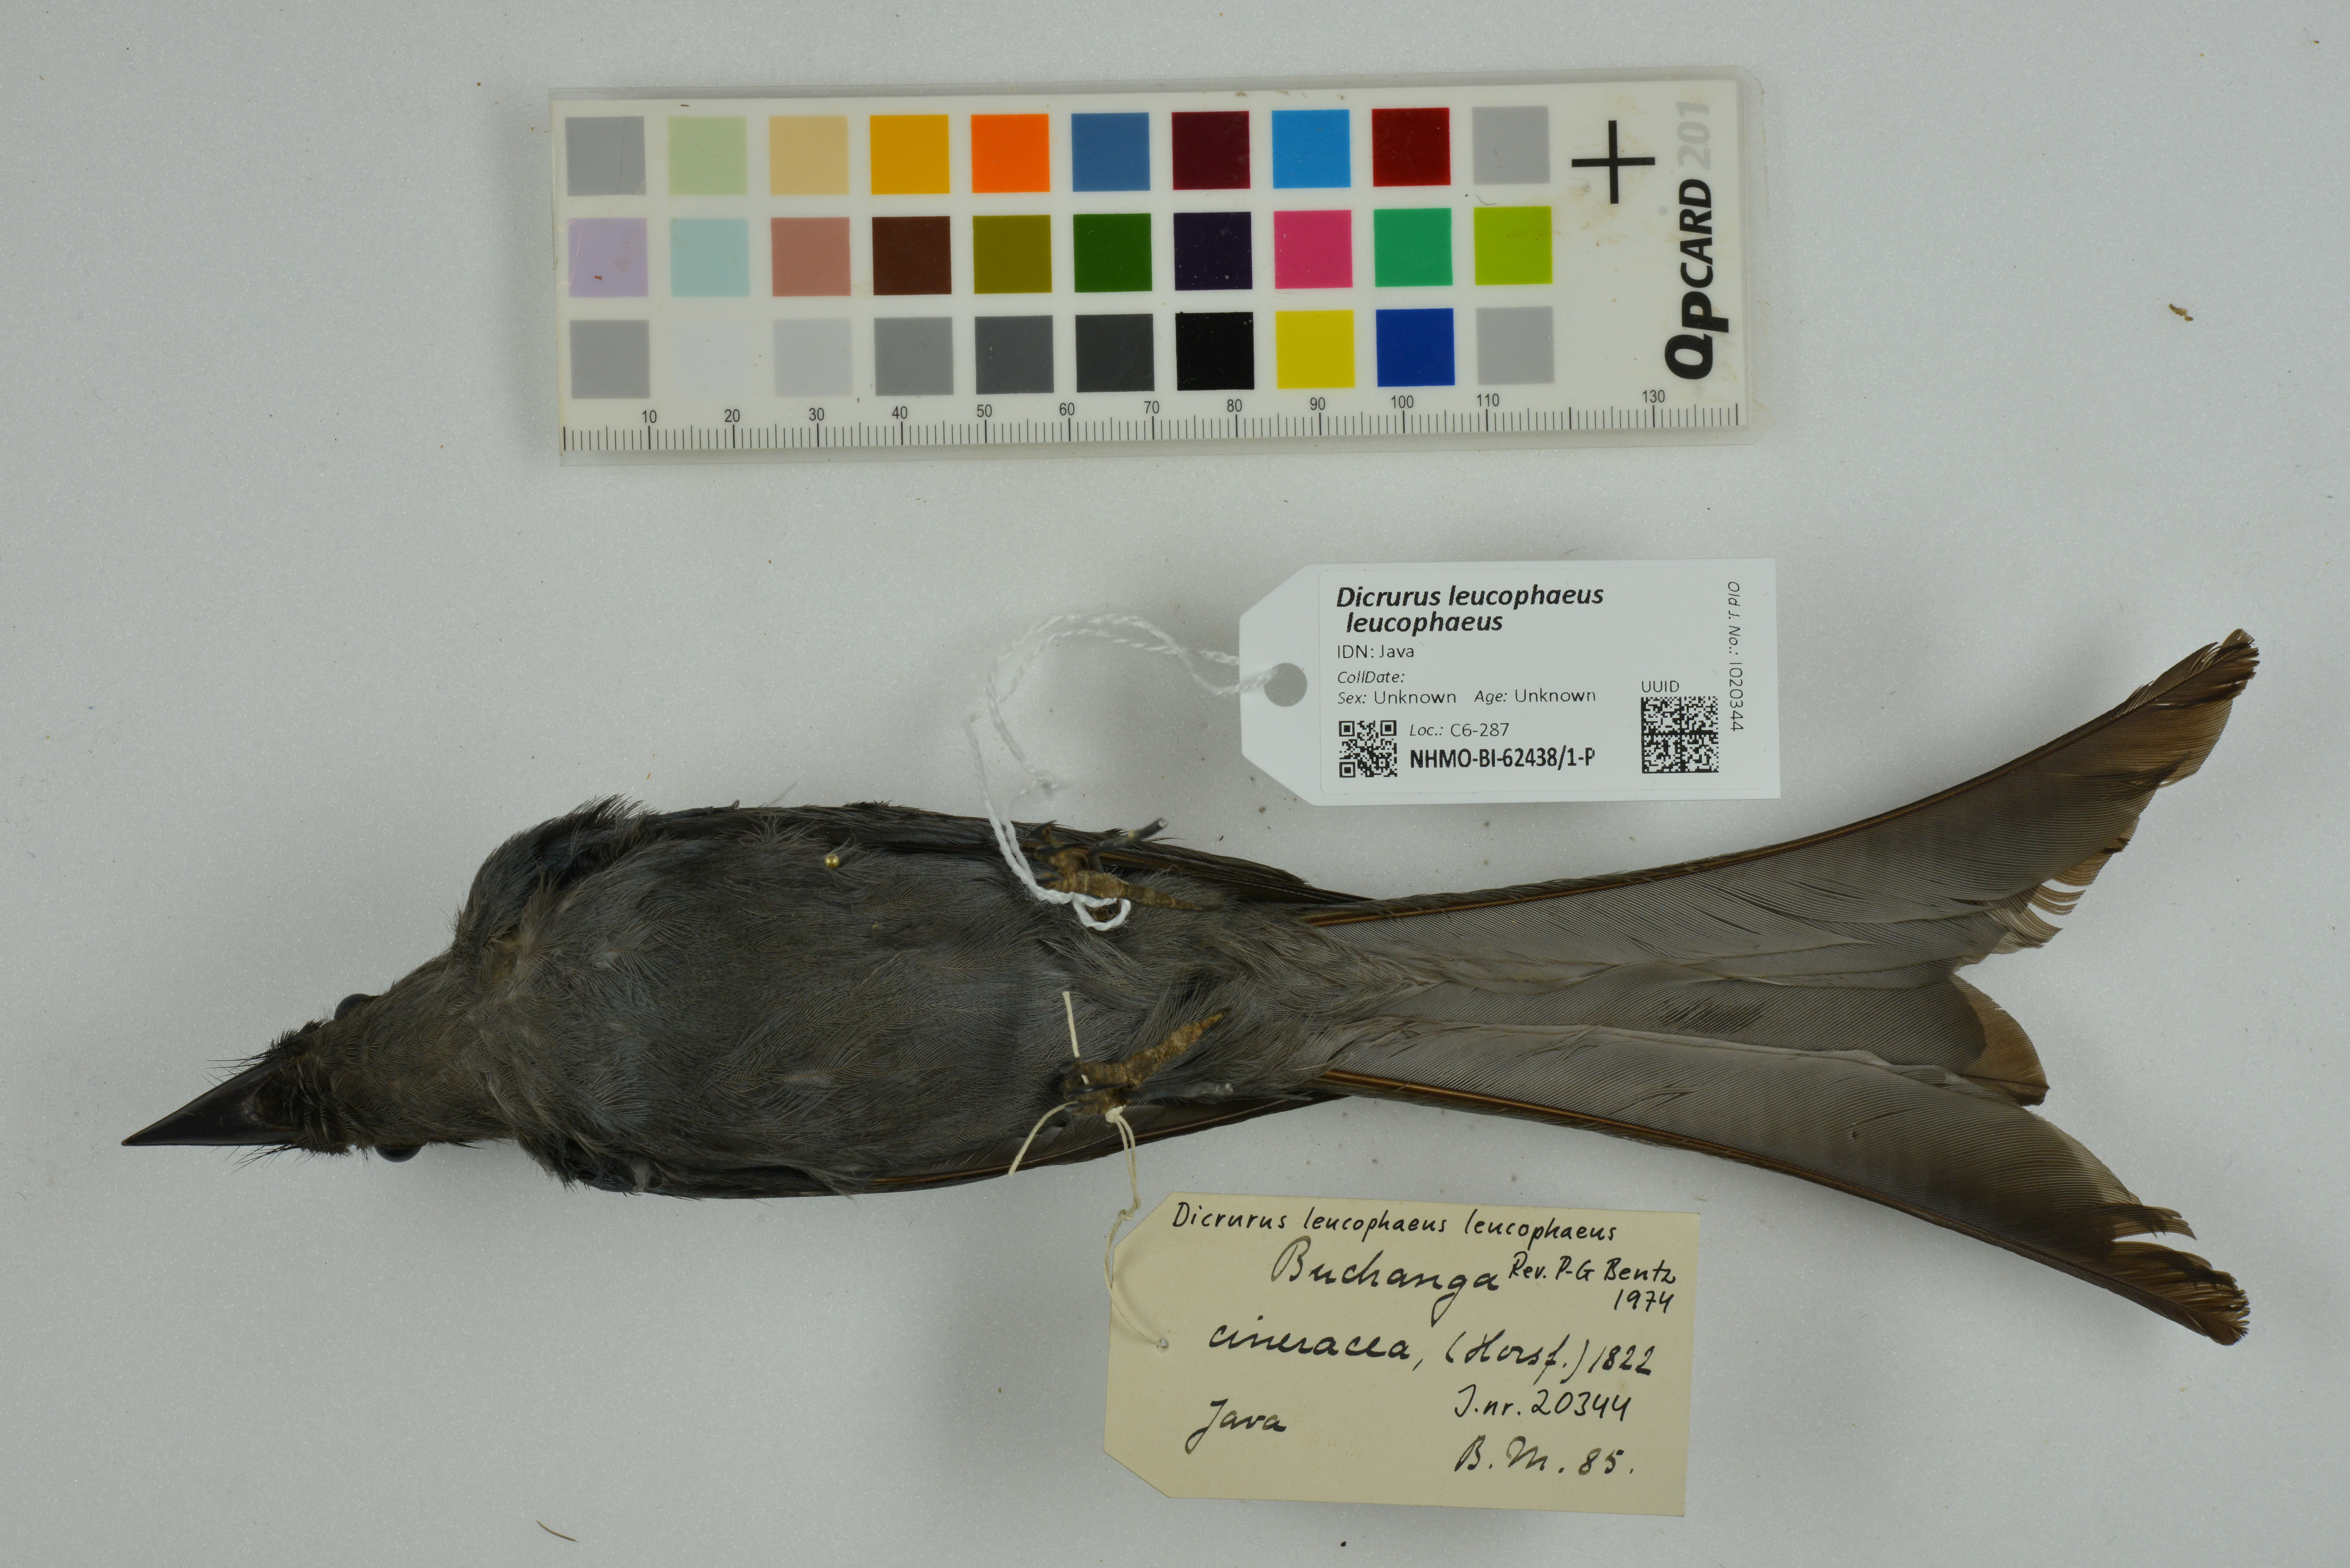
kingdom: Animalia
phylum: Chordata
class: Aves
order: Passeriformes
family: Dicruridae
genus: Dicrurus
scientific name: Dicrurus leucophaeus
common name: Ashy drongo
